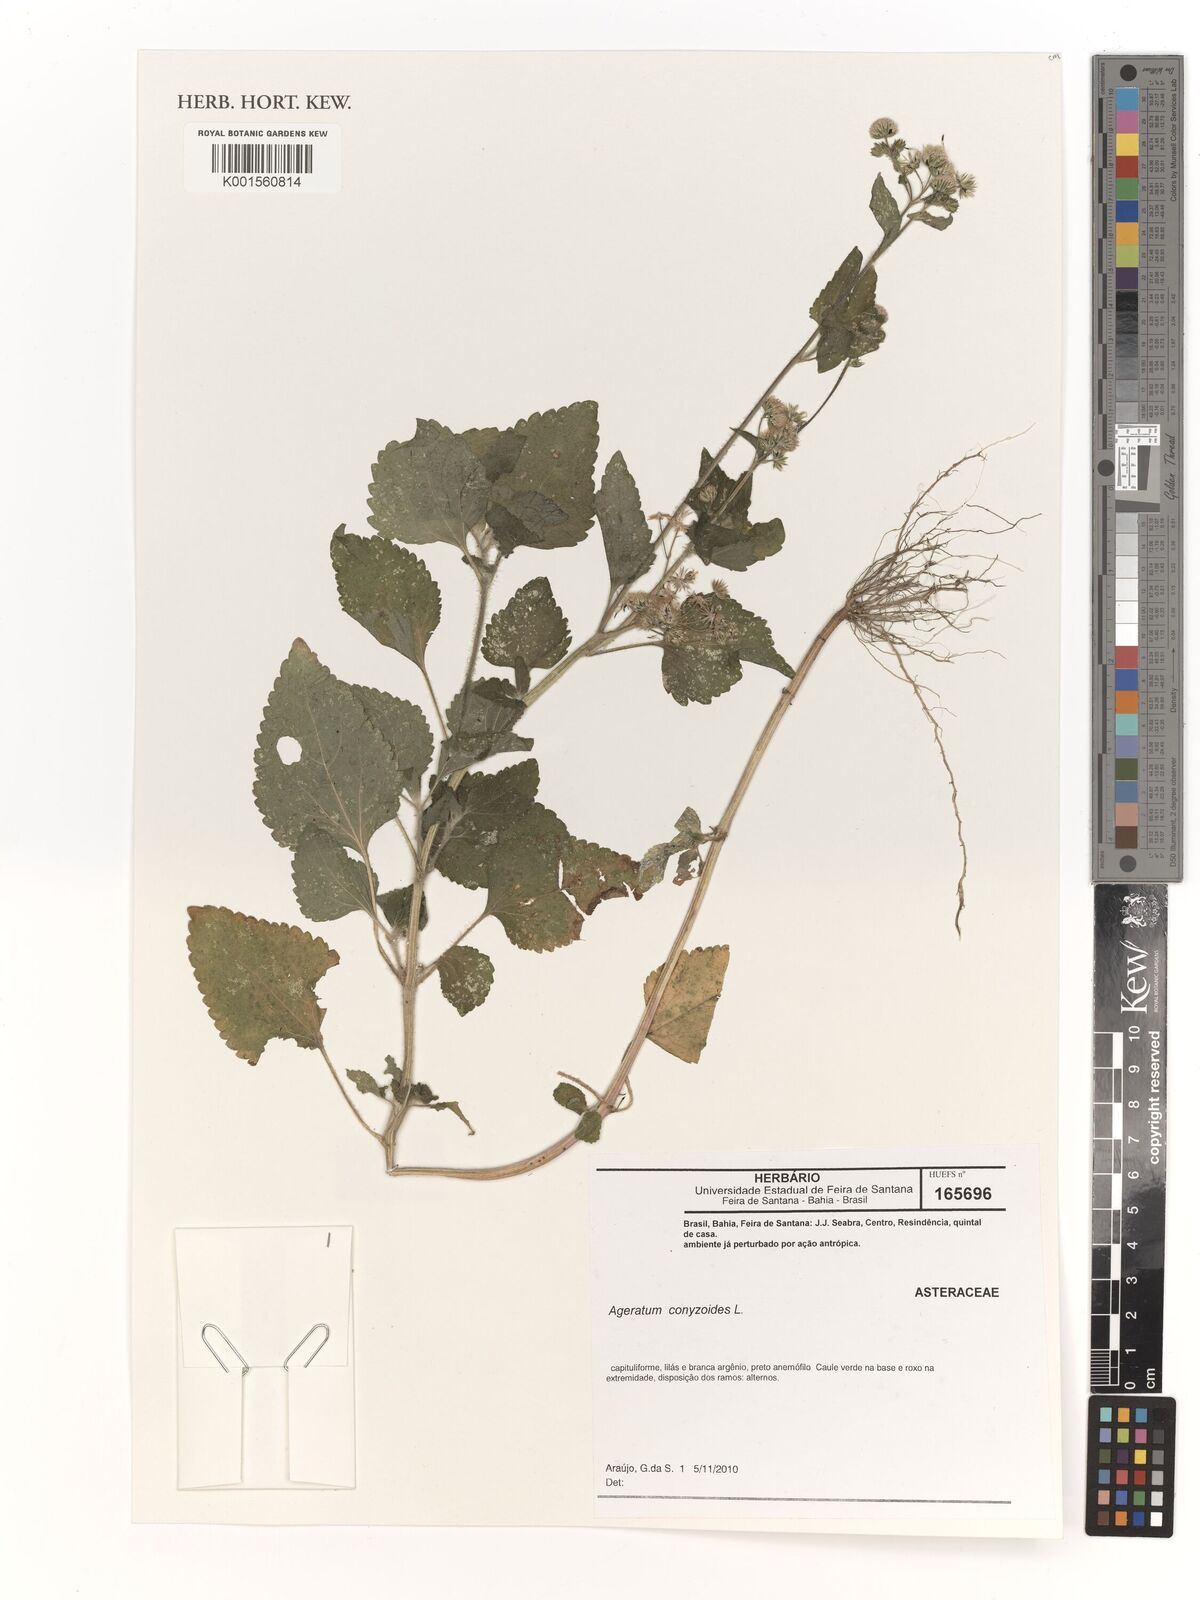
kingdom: Plantae
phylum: Tracheophyta
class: Magnoliopsida
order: Asterales
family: Asteraceae
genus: Ageratum
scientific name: Ageratum conyzoides
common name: Tropical whiteweed
